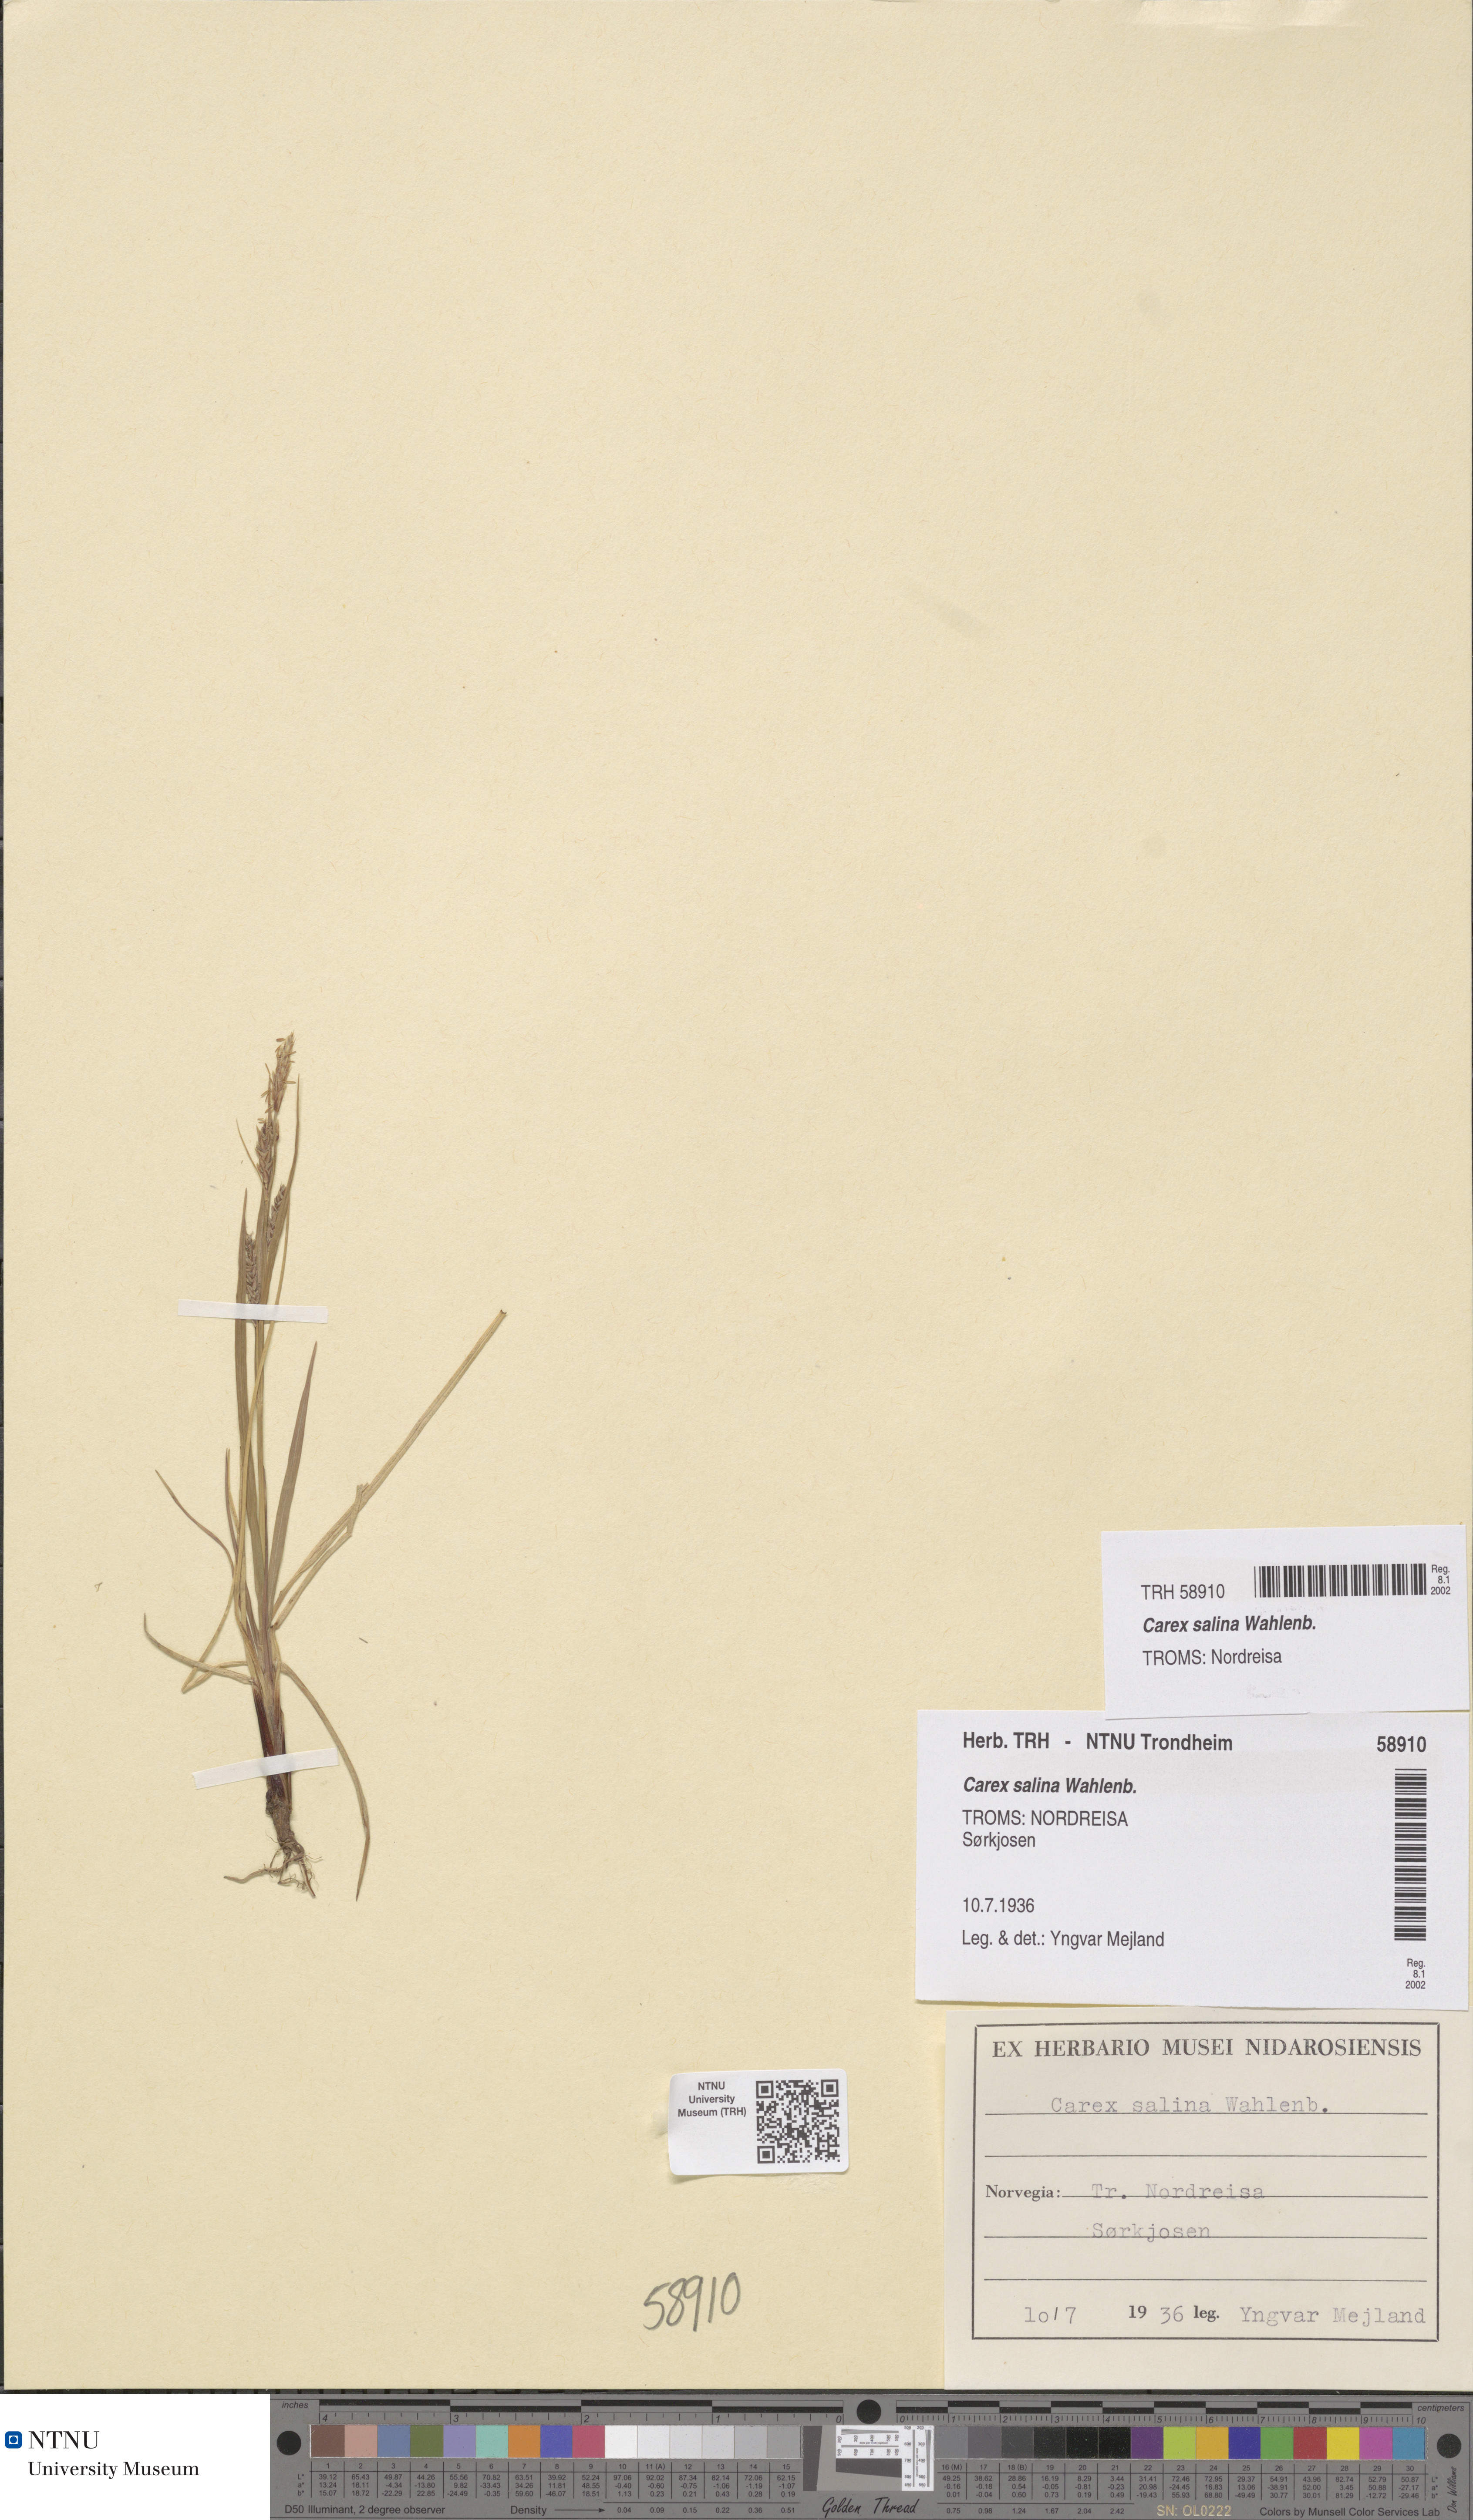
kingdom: Plantae
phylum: Tracheophyta
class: Liliopsida
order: Poales
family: Cyperaceae
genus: Carex
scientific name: Carex salina
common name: Saltmarsh sedge
